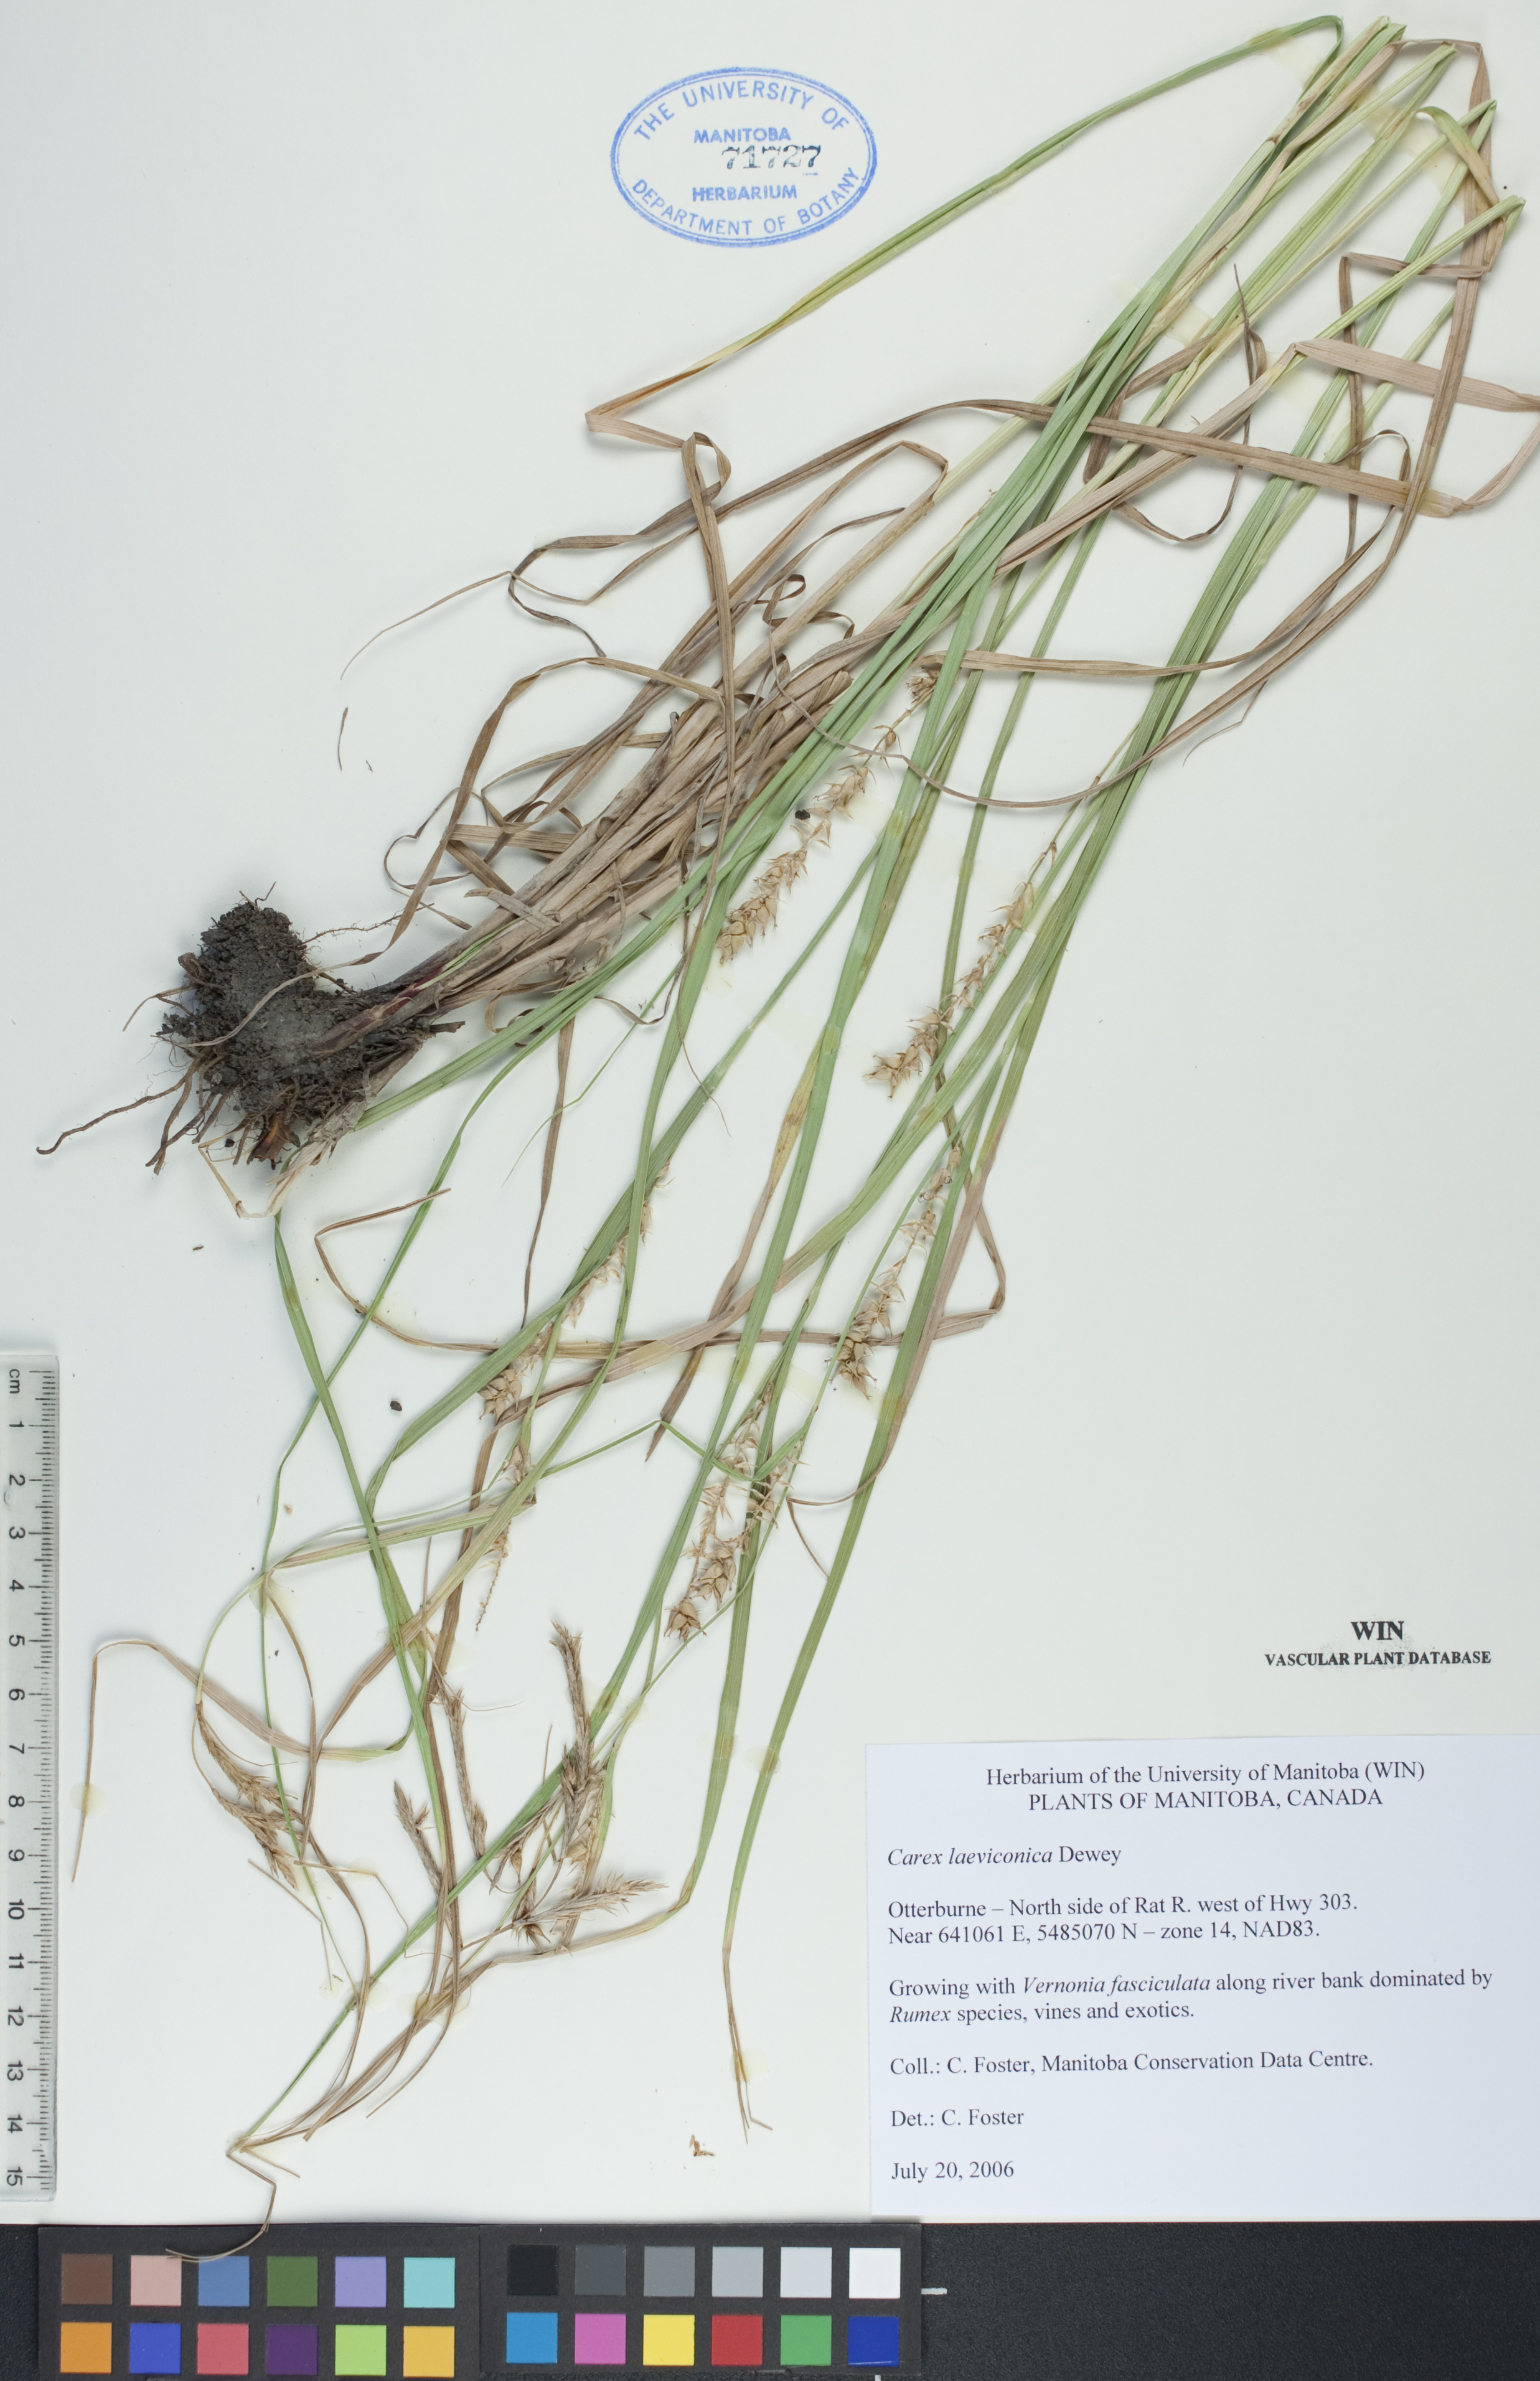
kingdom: Plantae
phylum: Tracheophyta
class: Liliopsida
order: Poales
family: Cyperaceae
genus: Carex
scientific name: Carex laeviconica
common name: Plains slough sedge
